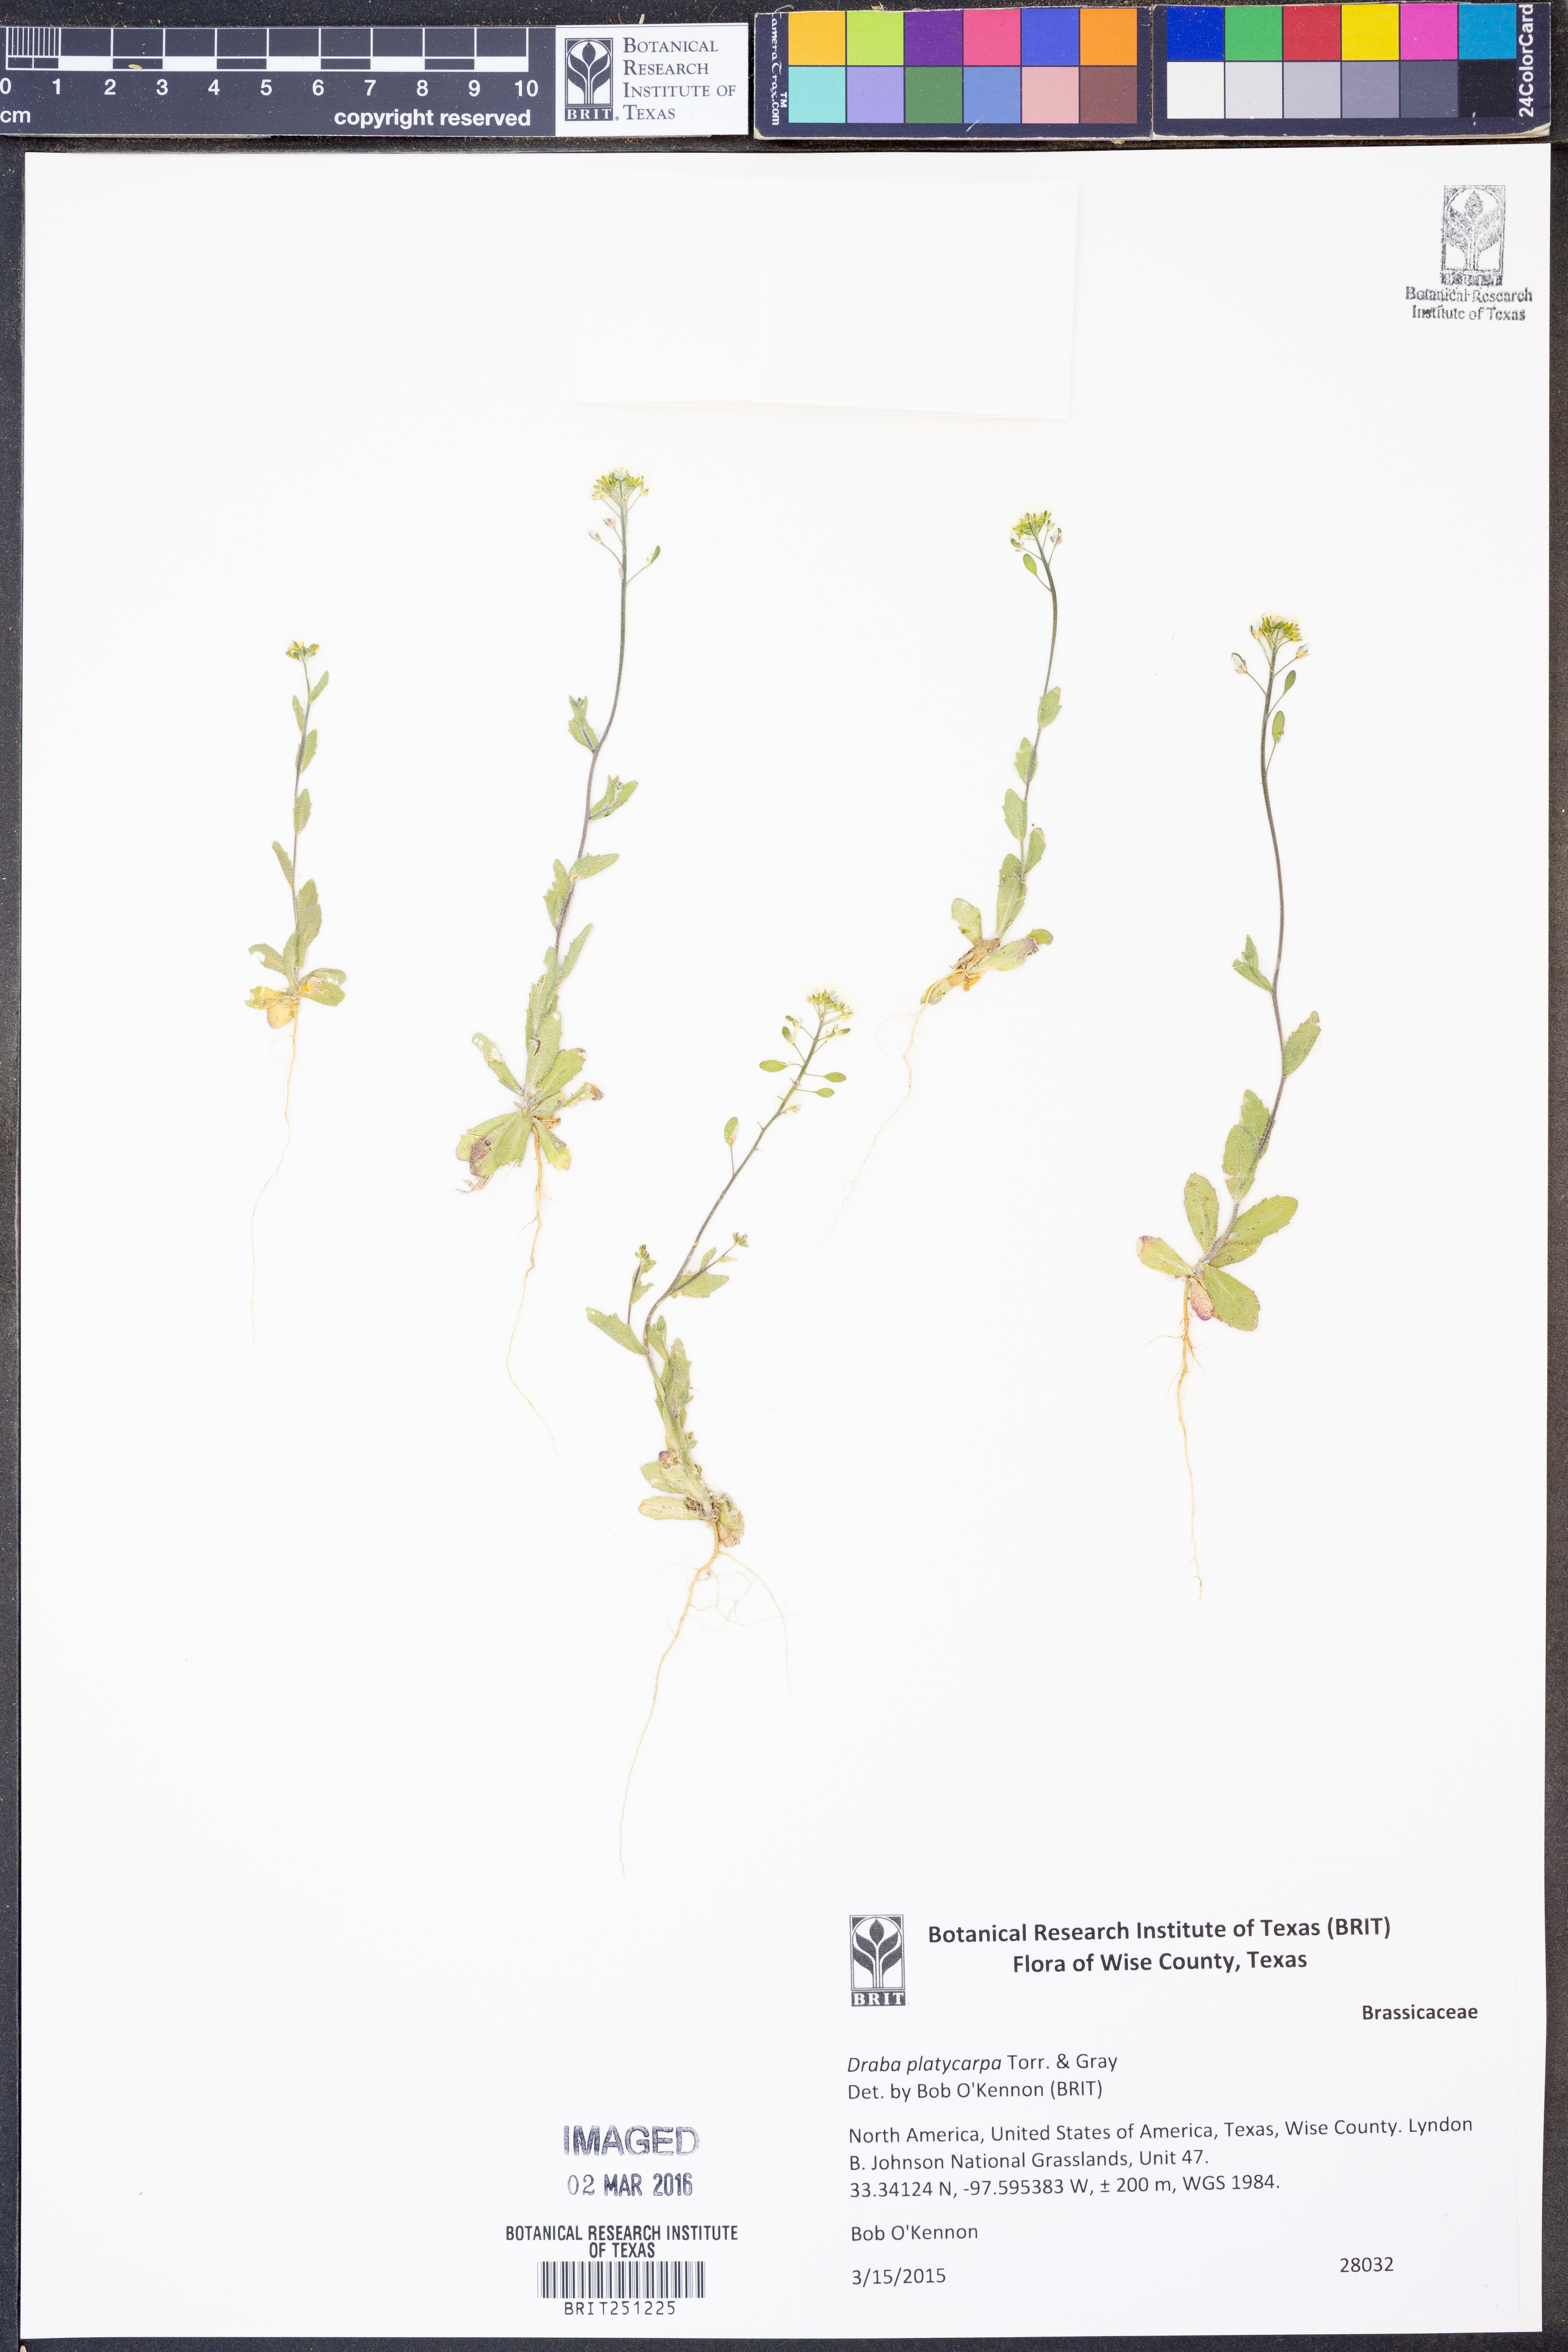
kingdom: Plantae
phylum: Tracheophyta
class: Magnoliopsida
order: Brassicales
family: Brassicaceae
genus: Tomostima
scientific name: Tomostima platycarpa
